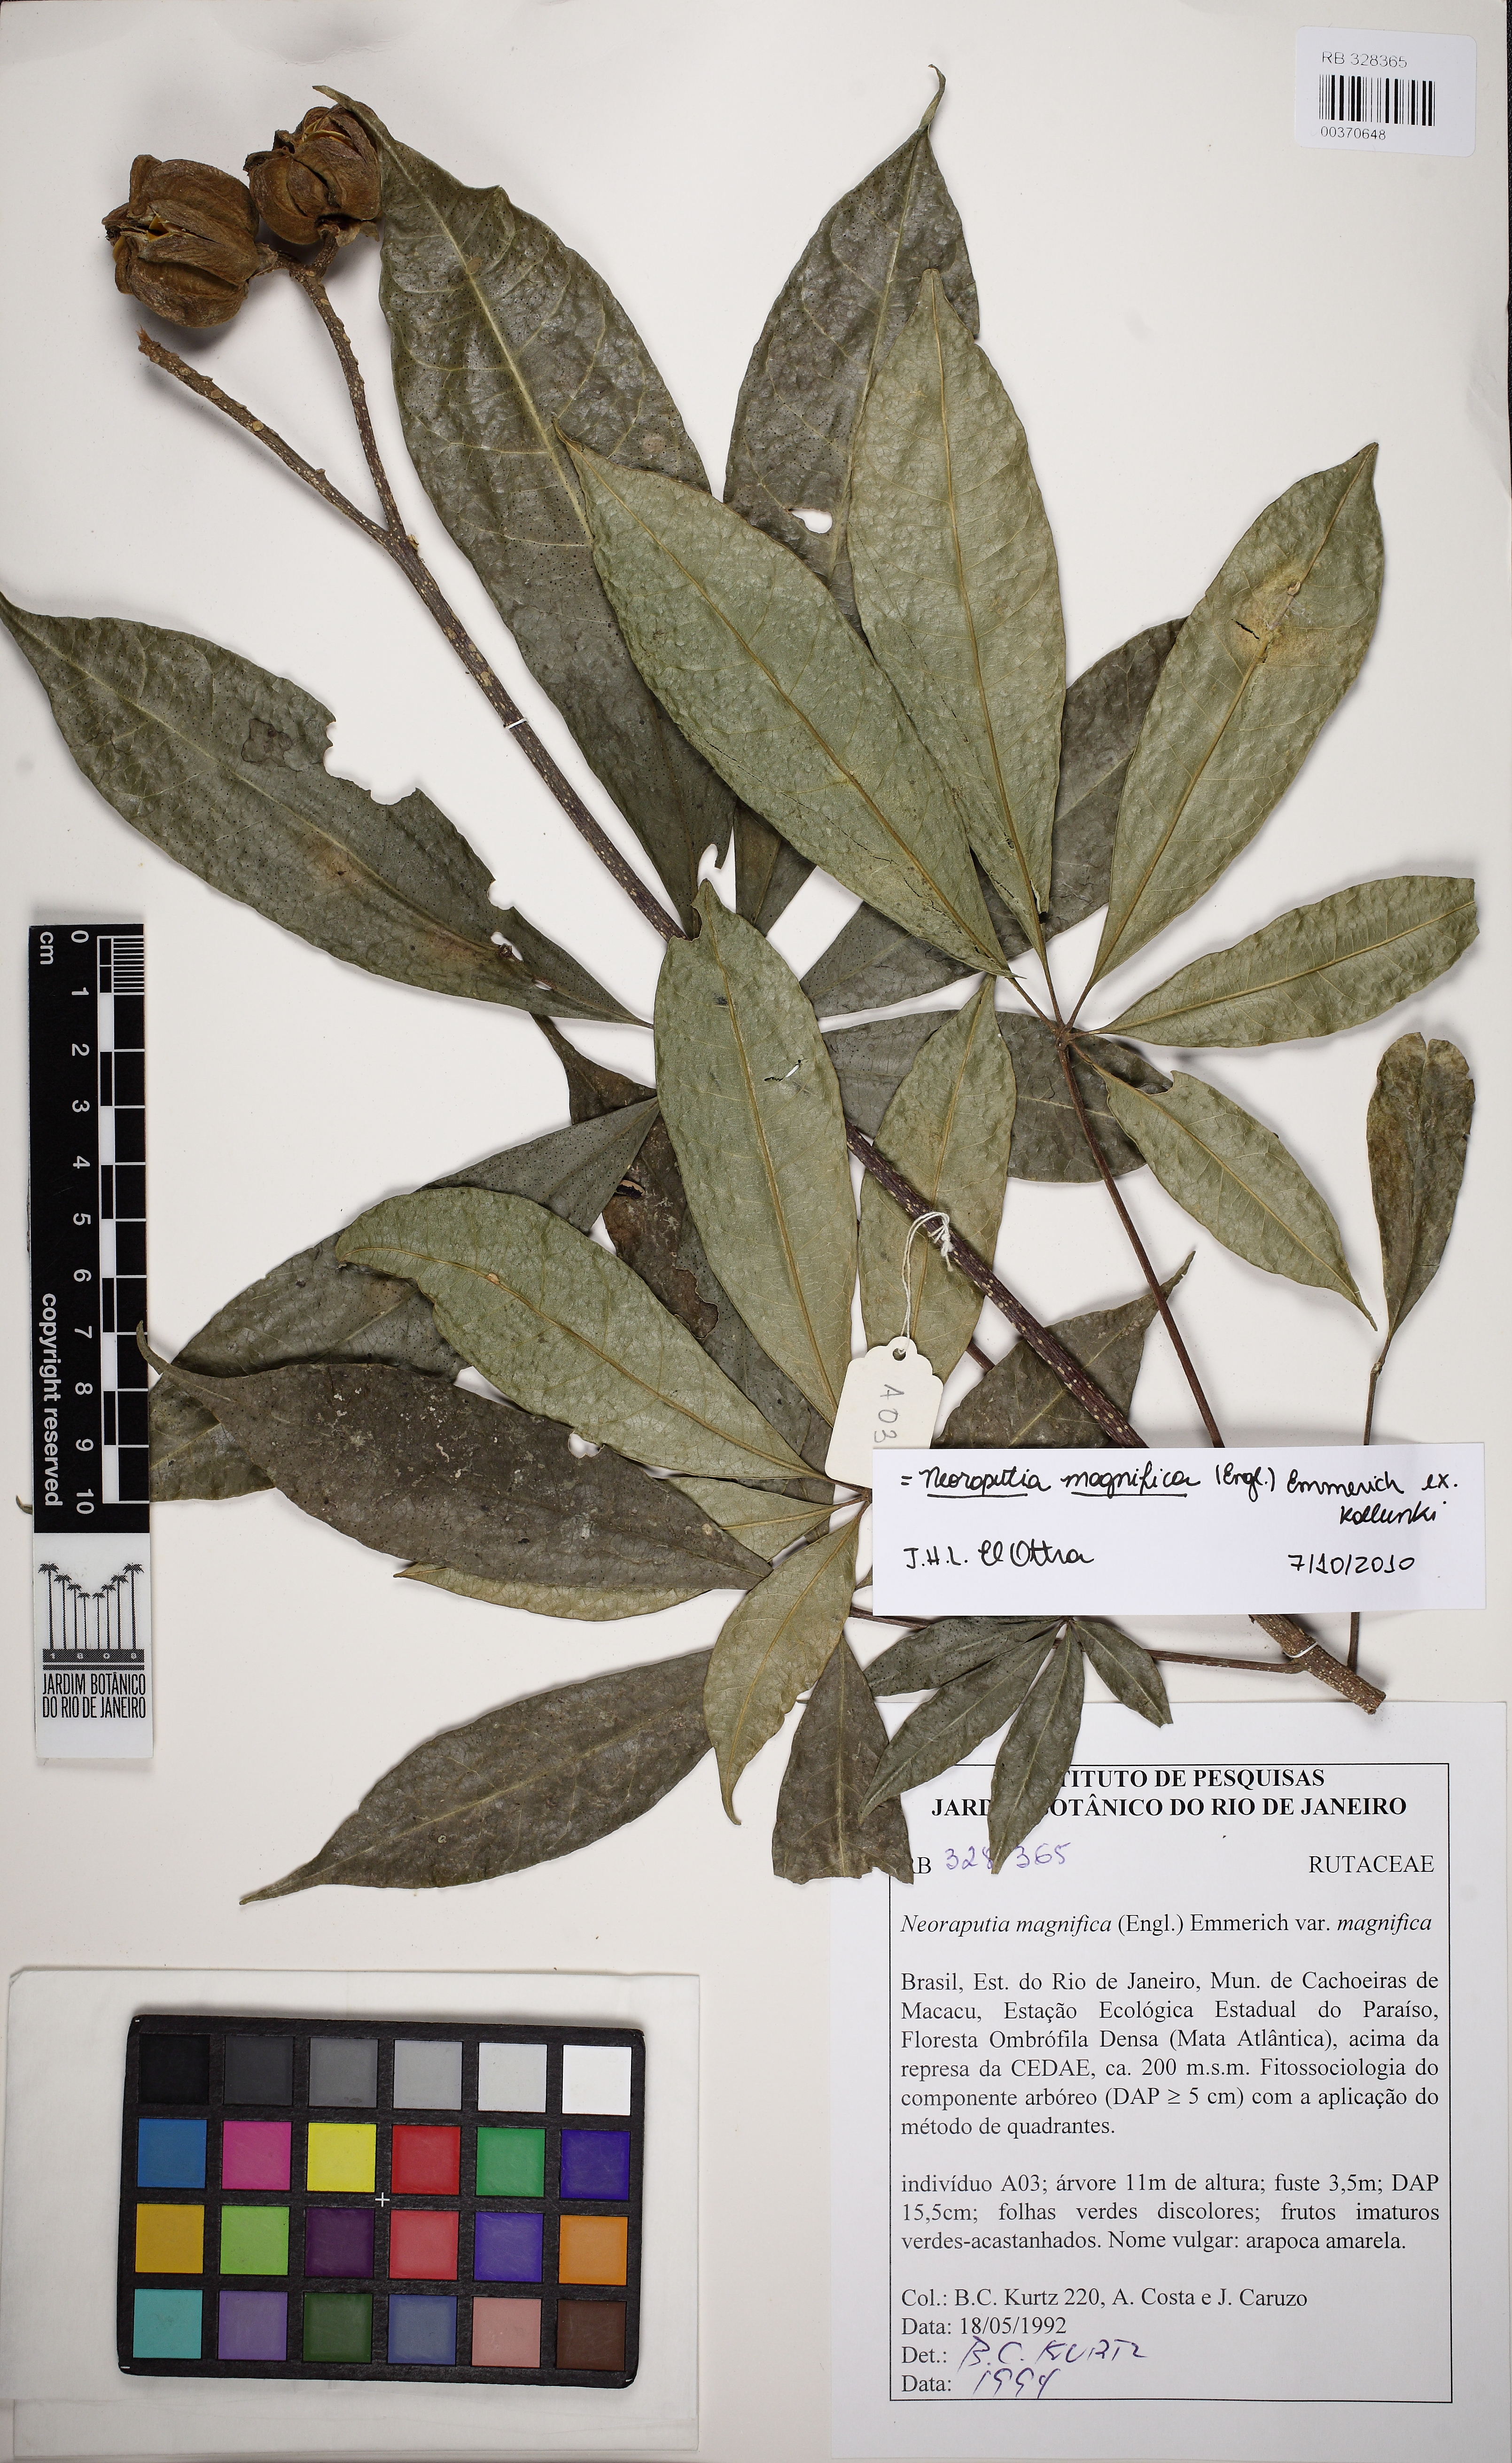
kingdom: Plantae
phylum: Tracheophyta
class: Magnoliopsida
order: Sapindales
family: Rutaceae
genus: Neoraputia
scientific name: Neoraputia magnifica
